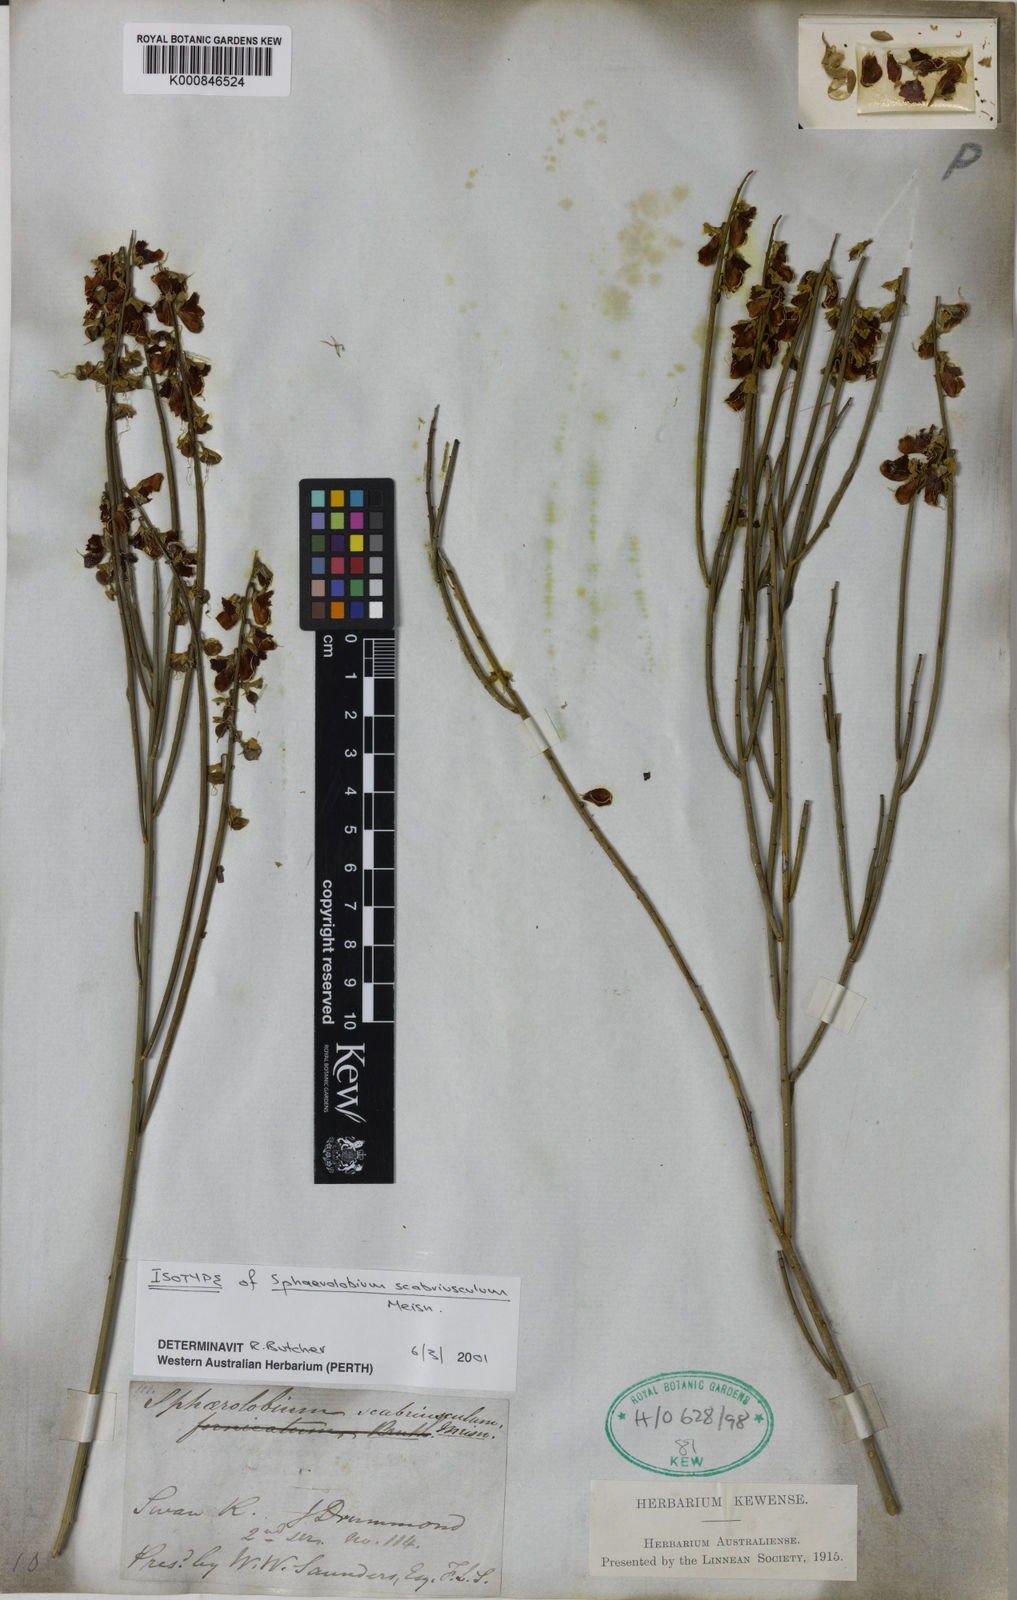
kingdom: Plantae
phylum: Tracheophyta
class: Magnoliopsida
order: Fabales
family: Fabaceae
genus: Sphaerolobium
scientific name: Sphaerolobium scabriusculum
